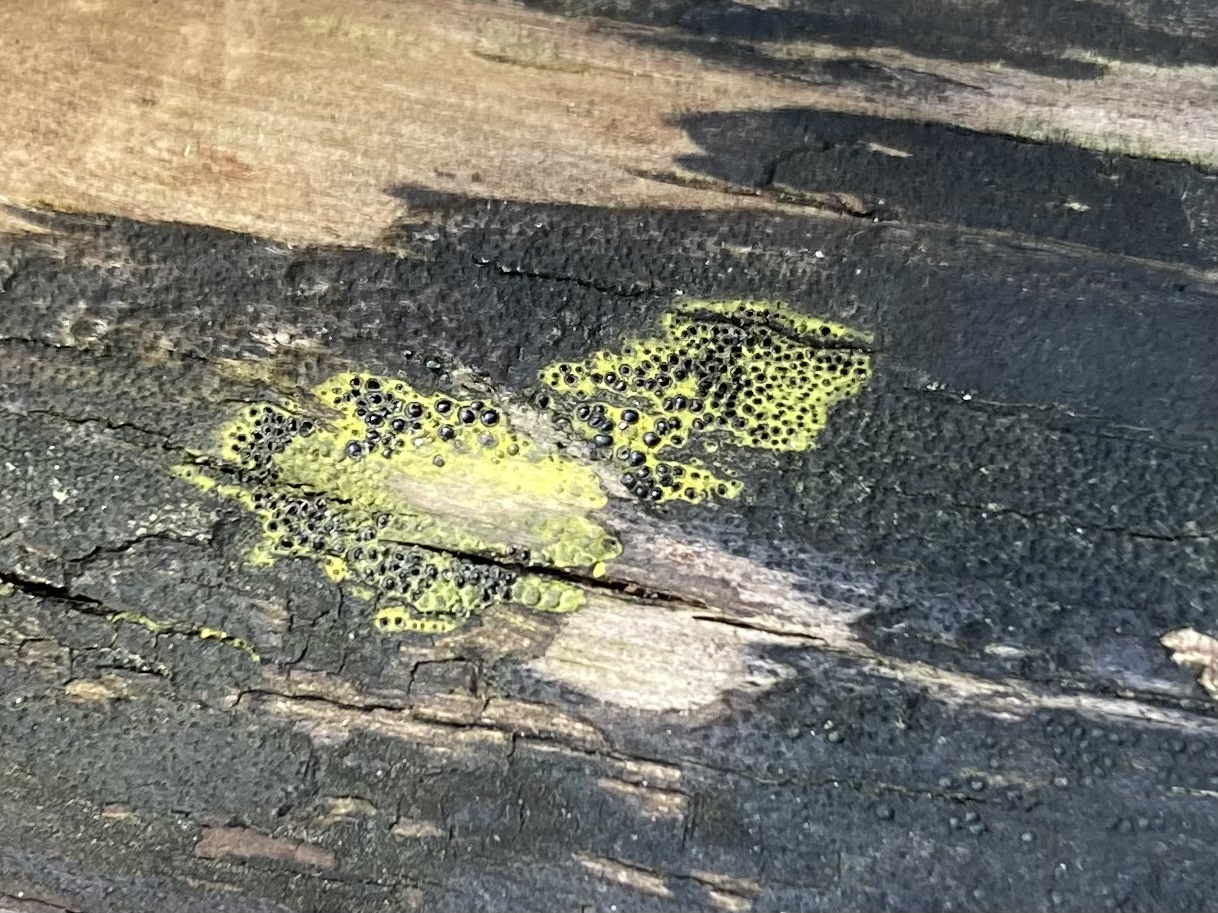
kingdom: Fungi
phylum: Ascomycota
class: Sordariomycetes
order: Xylariales
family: Diatrypaceae
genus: Eutypa
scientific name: Eutypa flavovirens
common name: grønkødet kulskorpe
